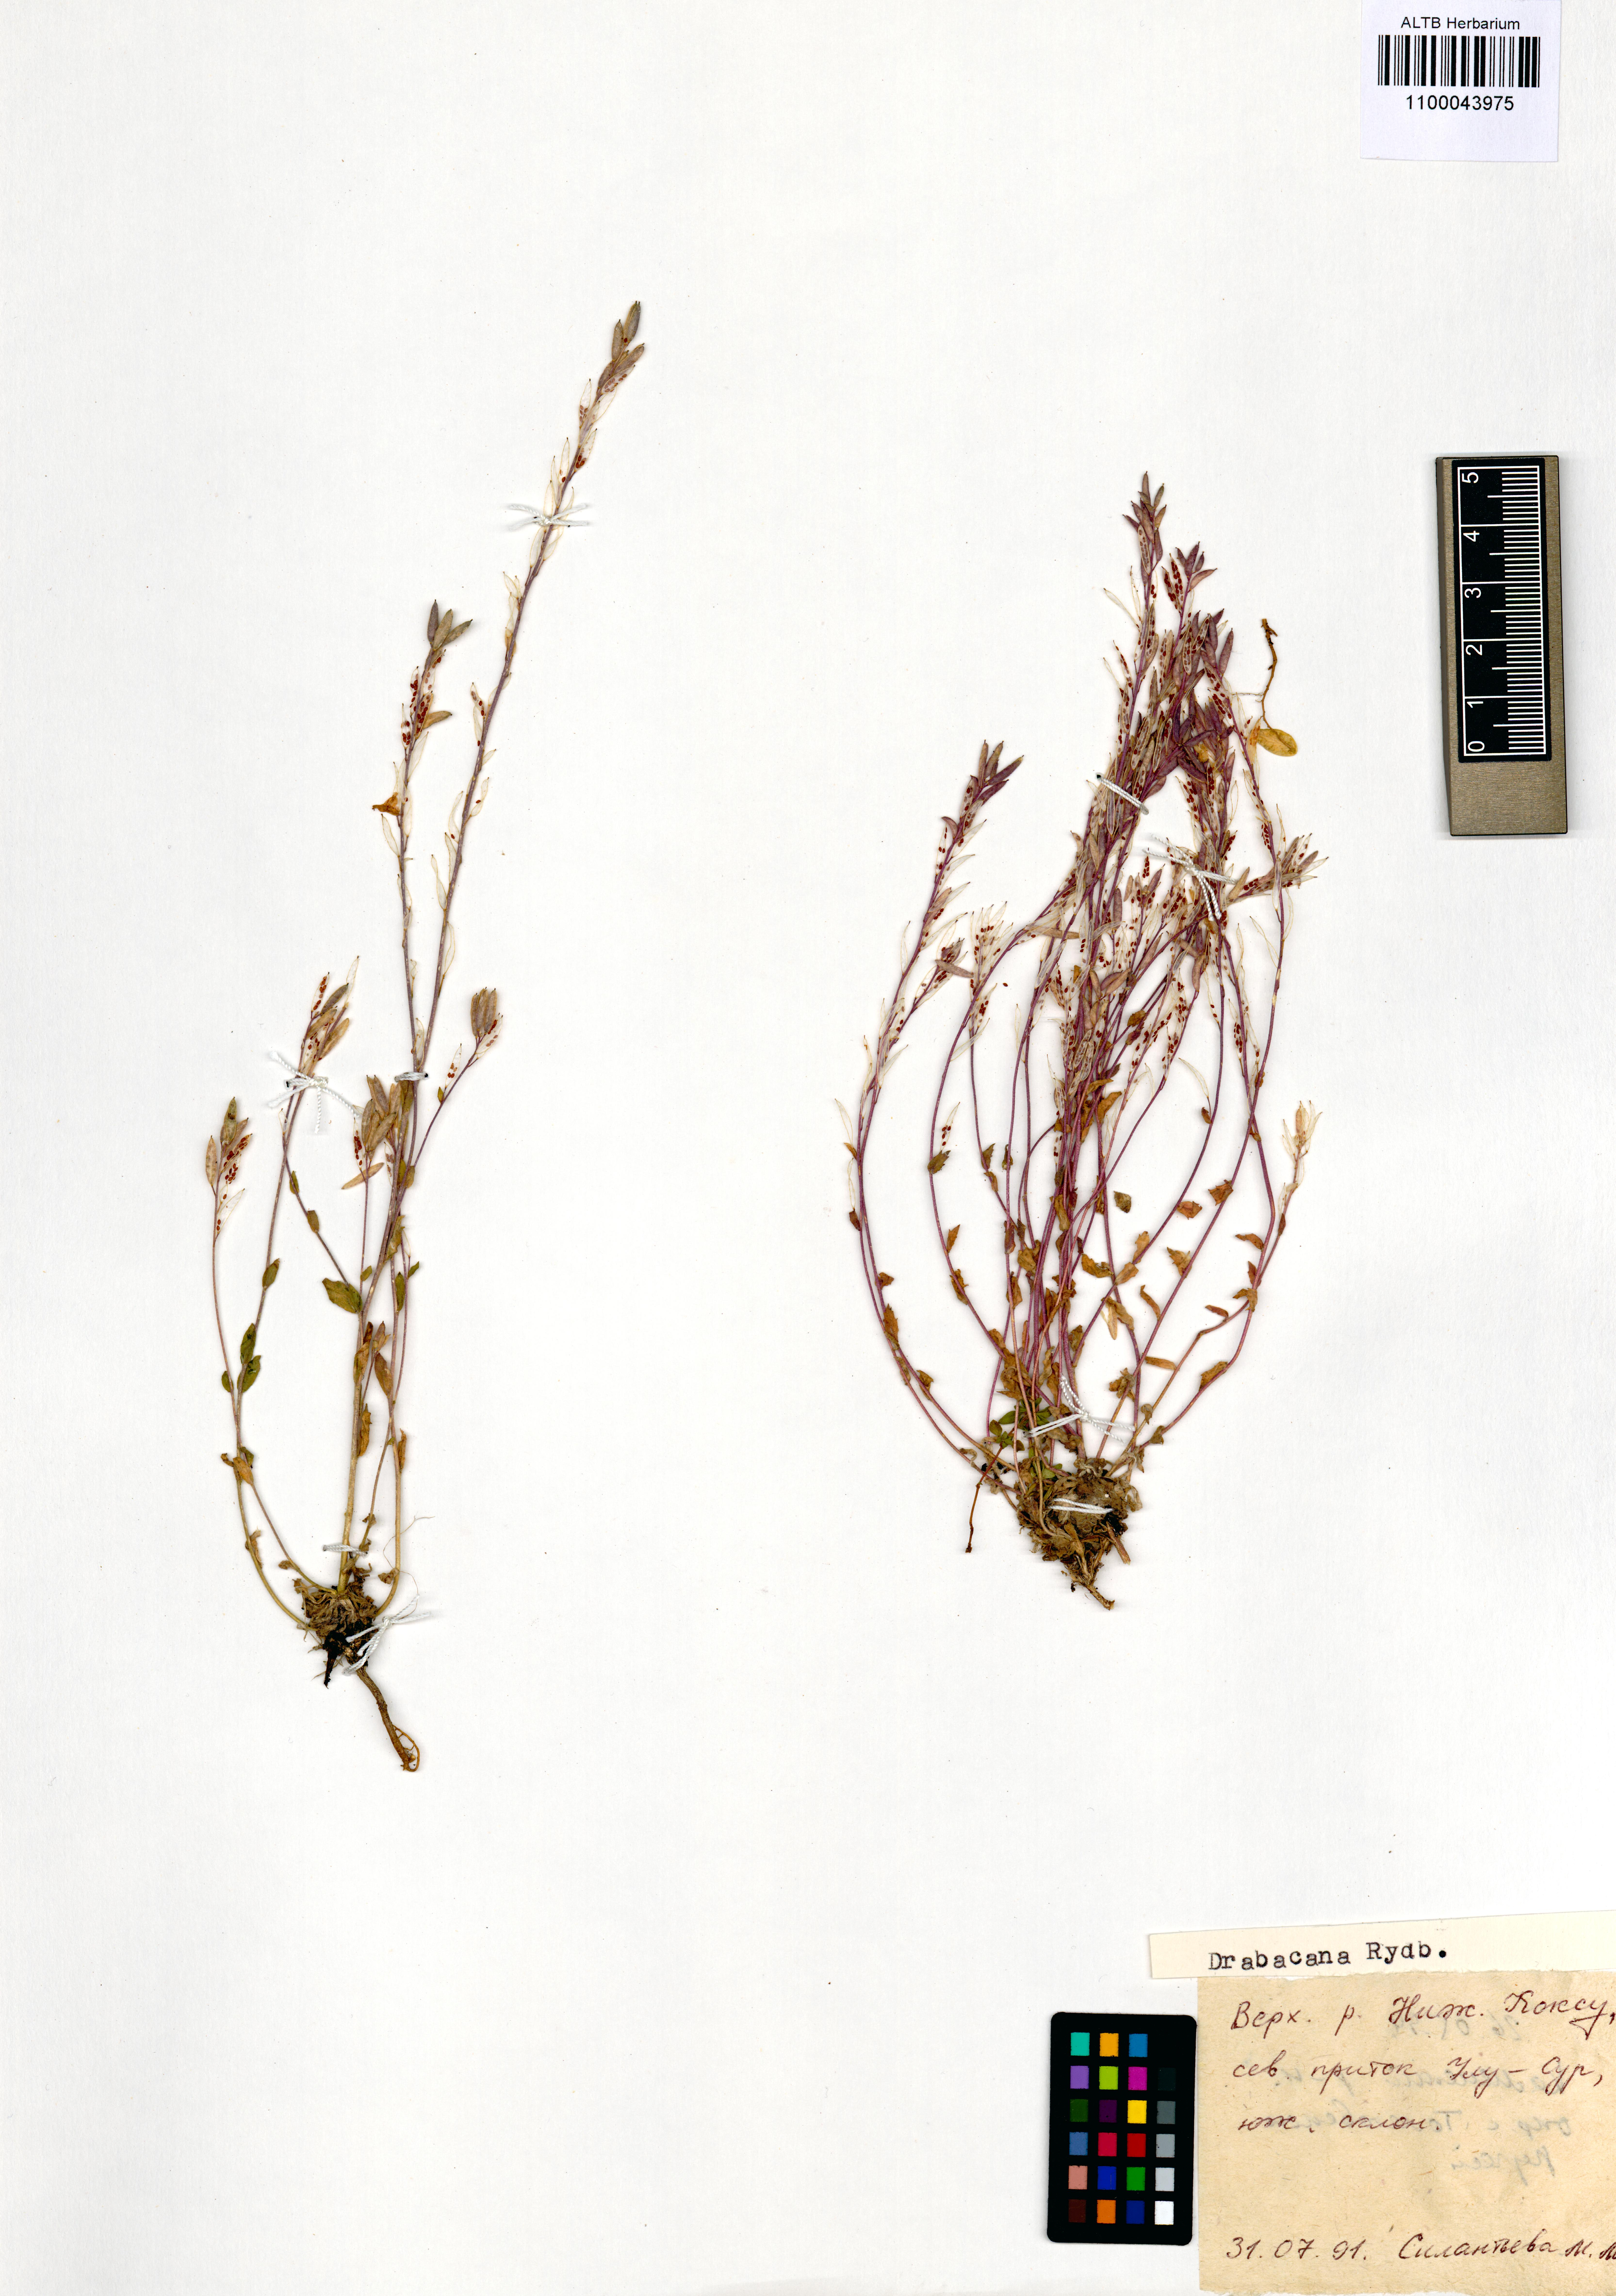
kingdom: Plantae
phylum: Tracheophyta
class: Magnoliopsida
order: Brassicales
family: Brassicaceae
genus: Draba
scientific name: Draba cana
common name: Hoary draba
